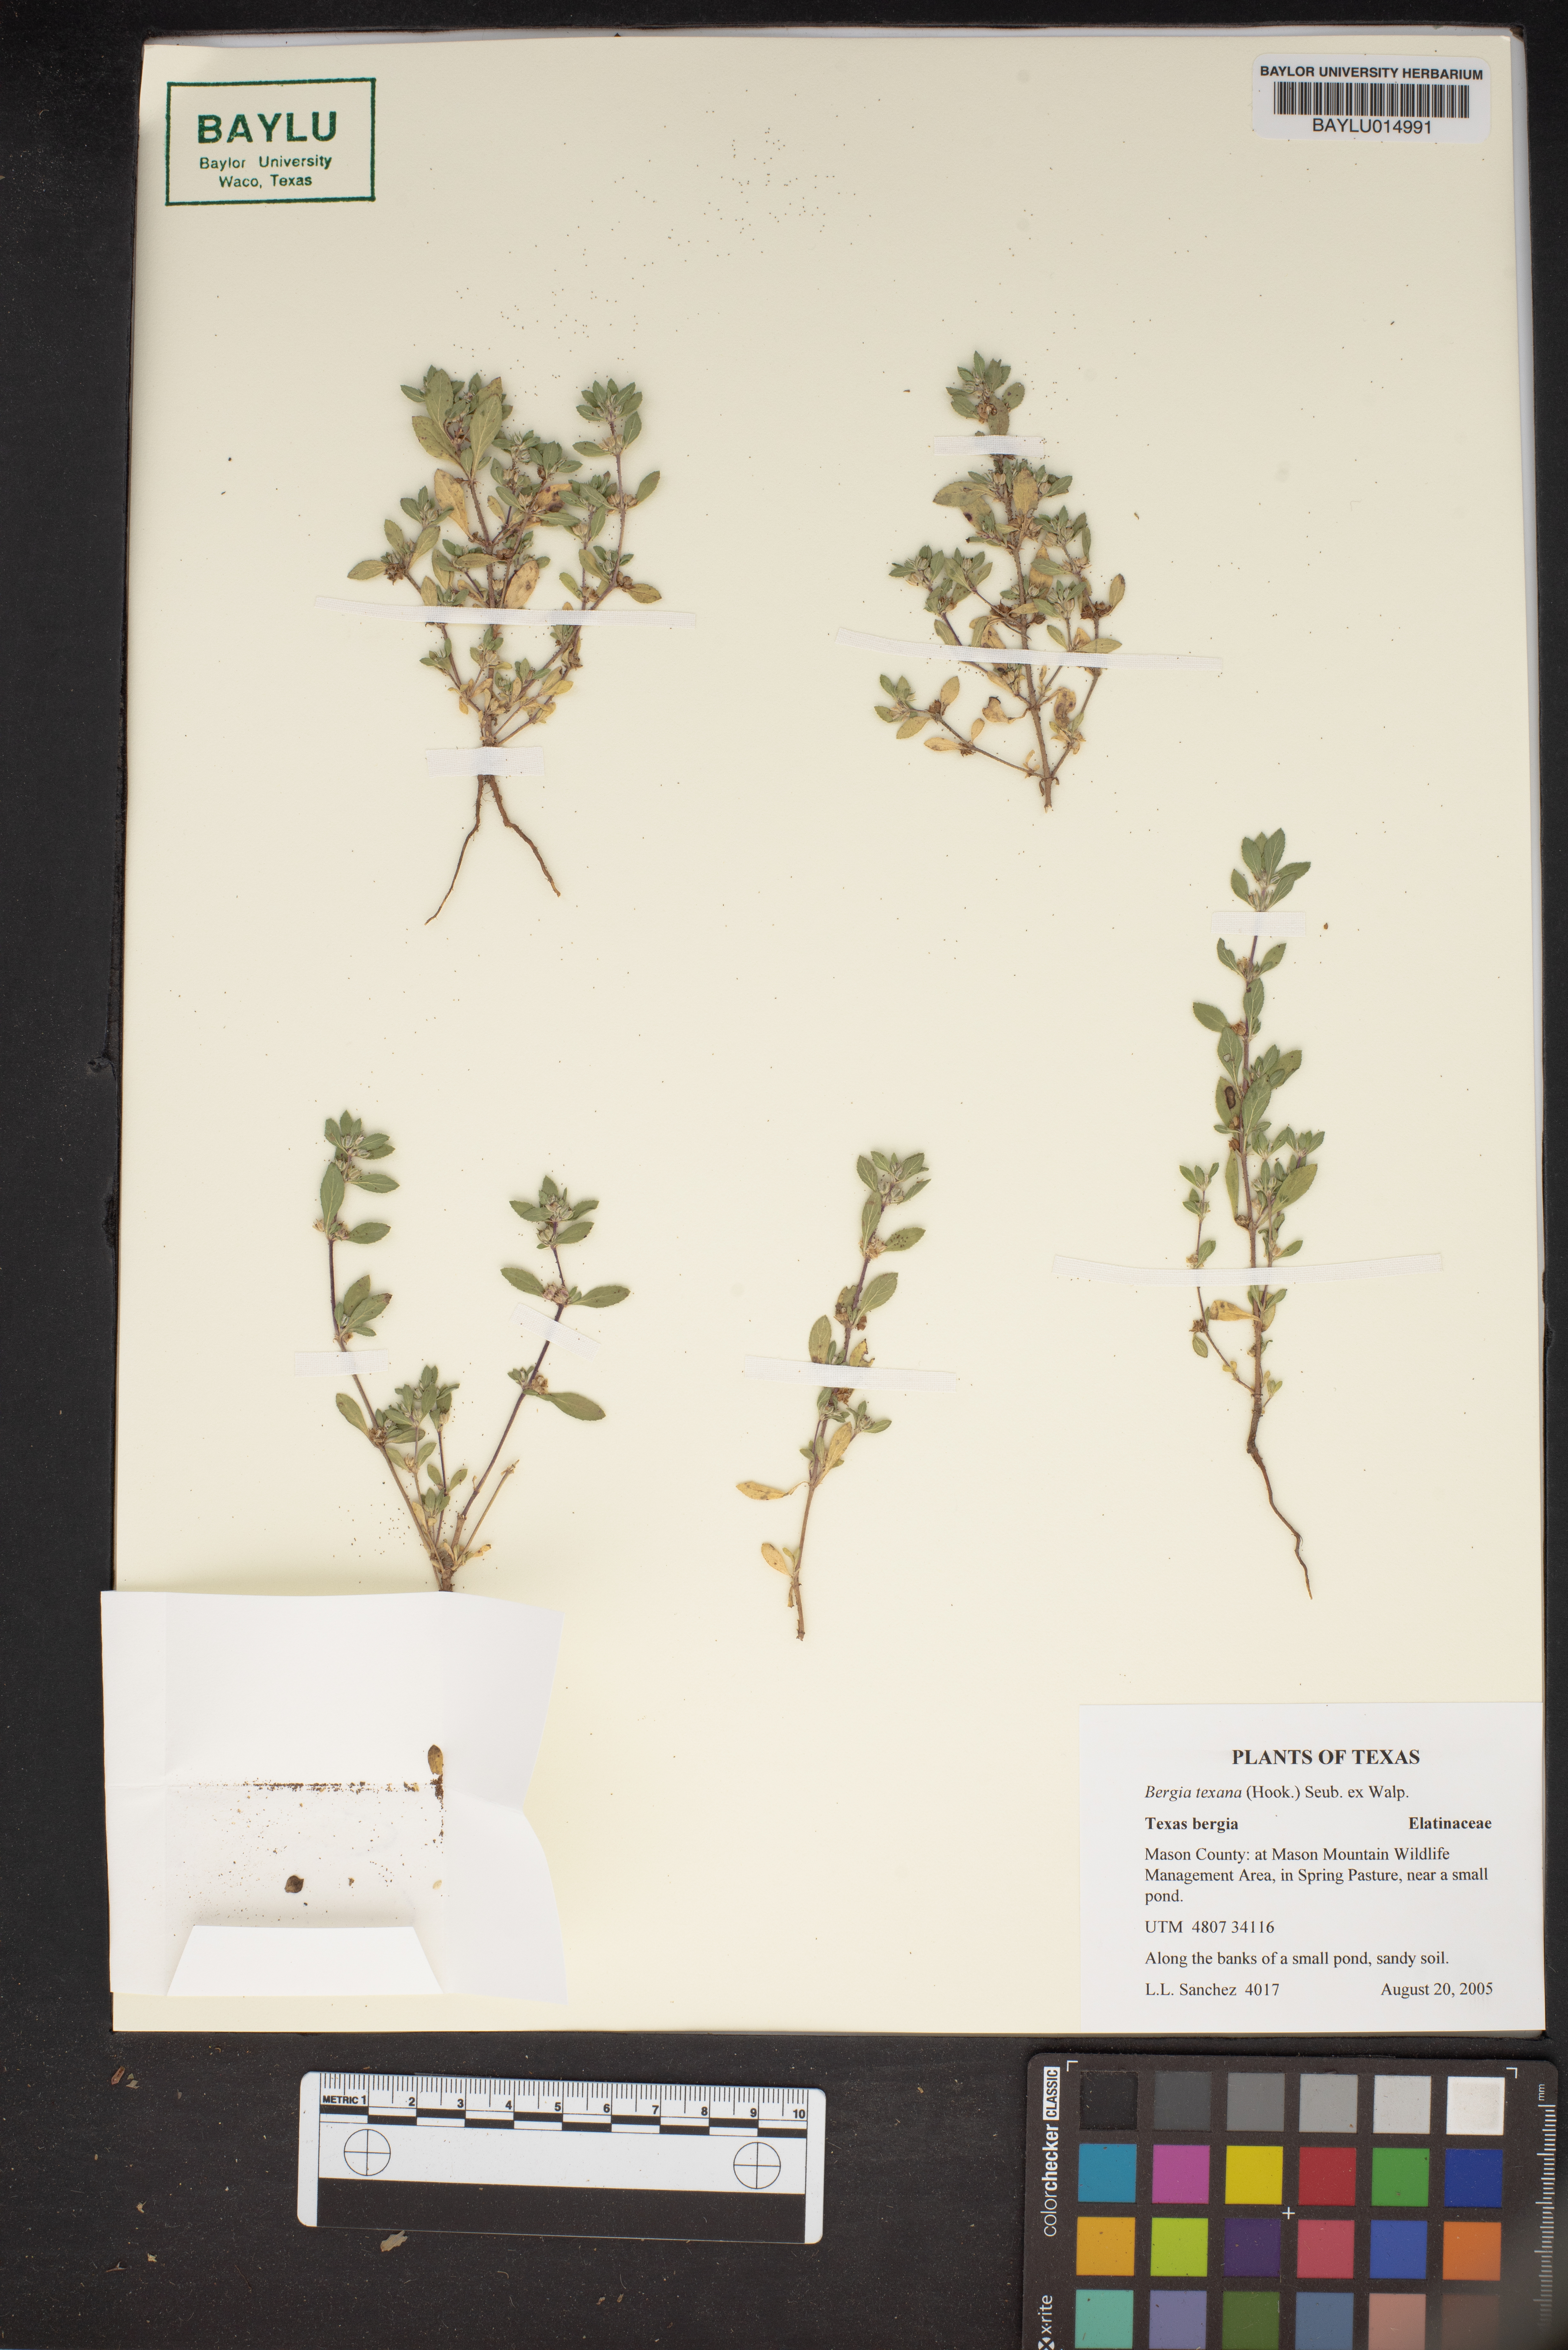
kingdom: Plantae
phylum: Tracheophyta
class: Magnoliopsida
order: Malpighiales
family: Elatinaceae
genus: Bergia
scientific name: Bergia texana
